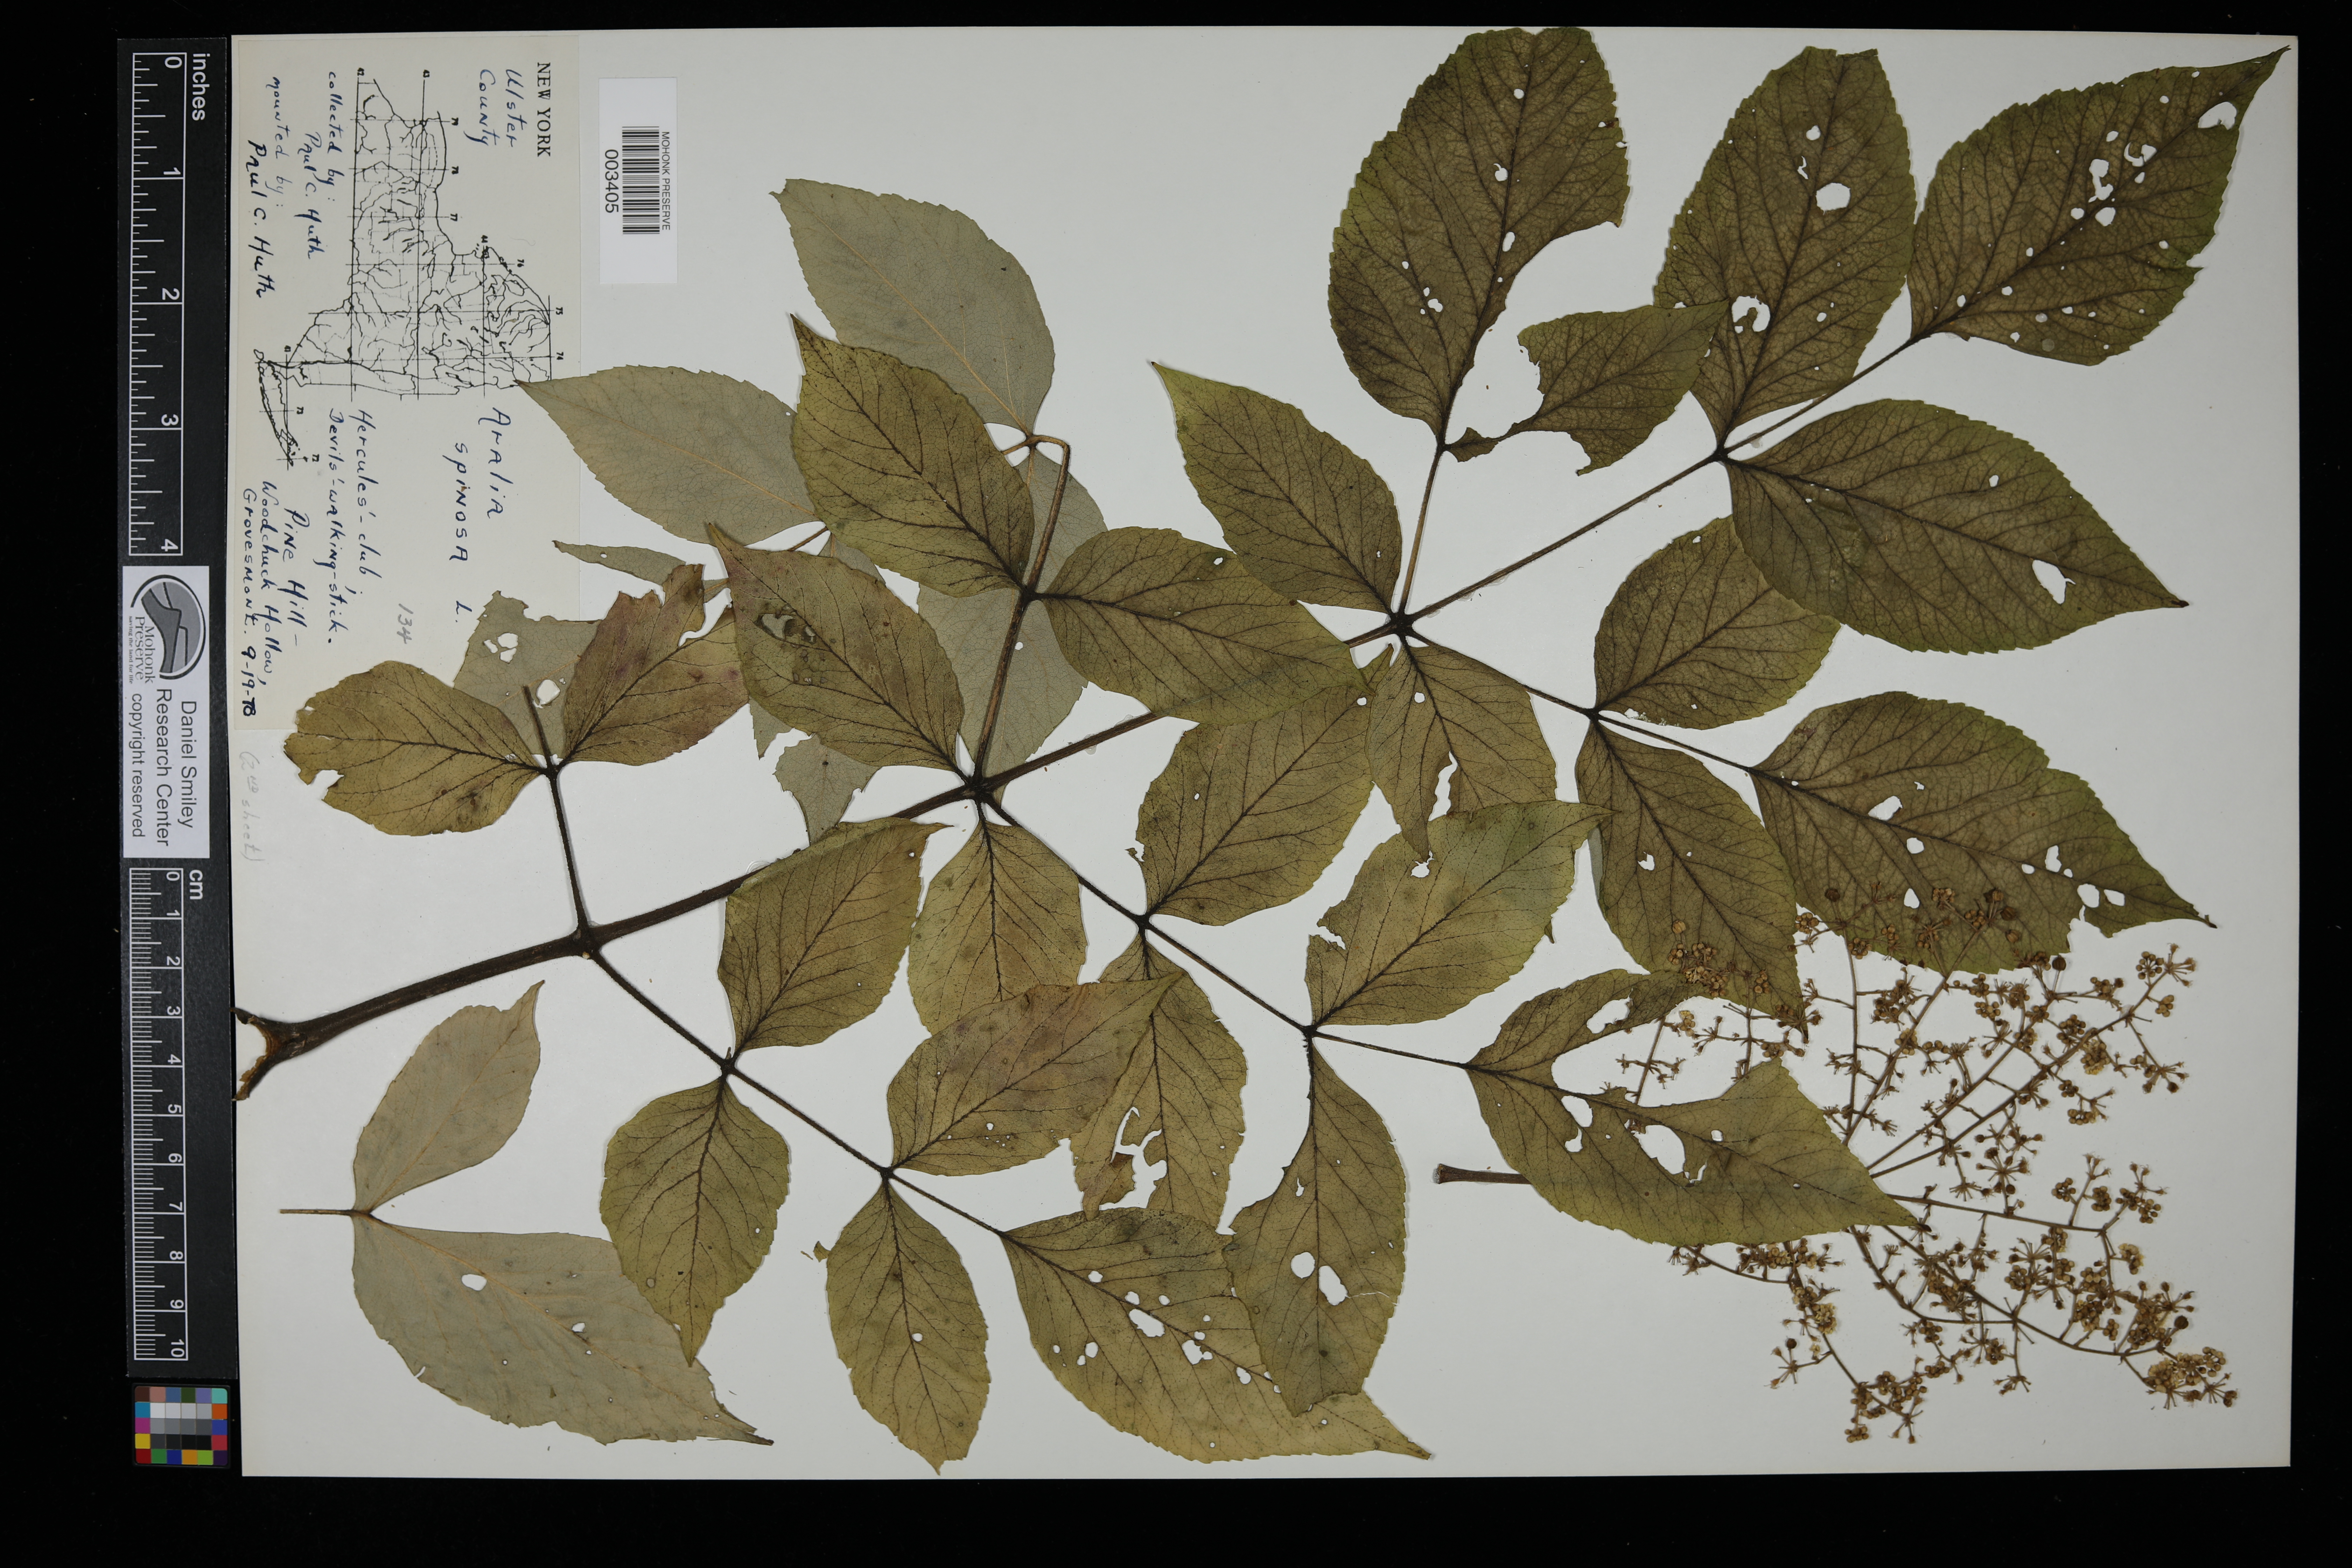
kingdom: Plantae
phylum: Tracheophyta
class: Magnoliopsida
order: Apiales
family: Araliaceae
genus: Aralia
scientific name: Aralia spinosa
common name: Hercules'-club
